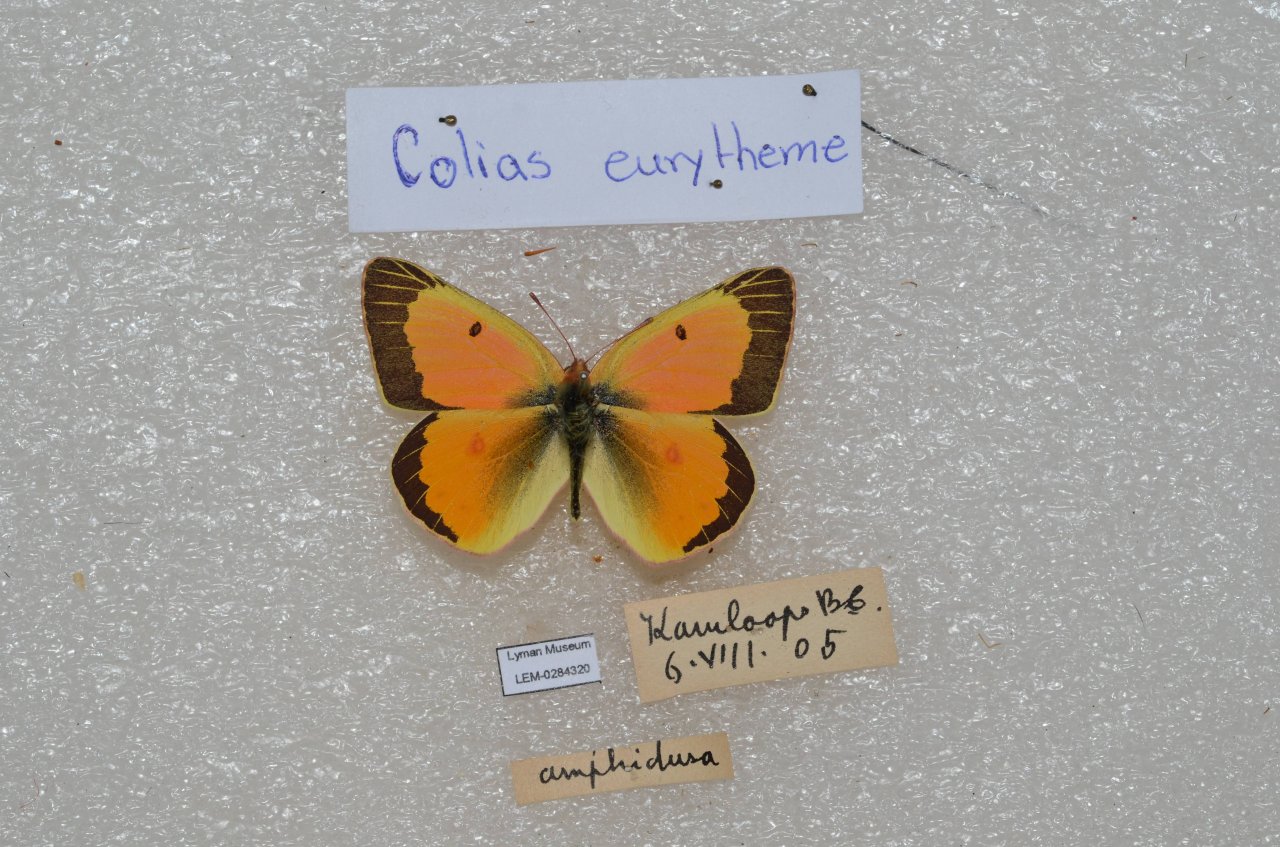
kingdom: Animalia
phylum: Arthropoda
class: Insecta
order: Lepidoptera
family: Pieridae
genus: Colias
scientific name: Colias eurytheme
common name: Orange Sulphur
